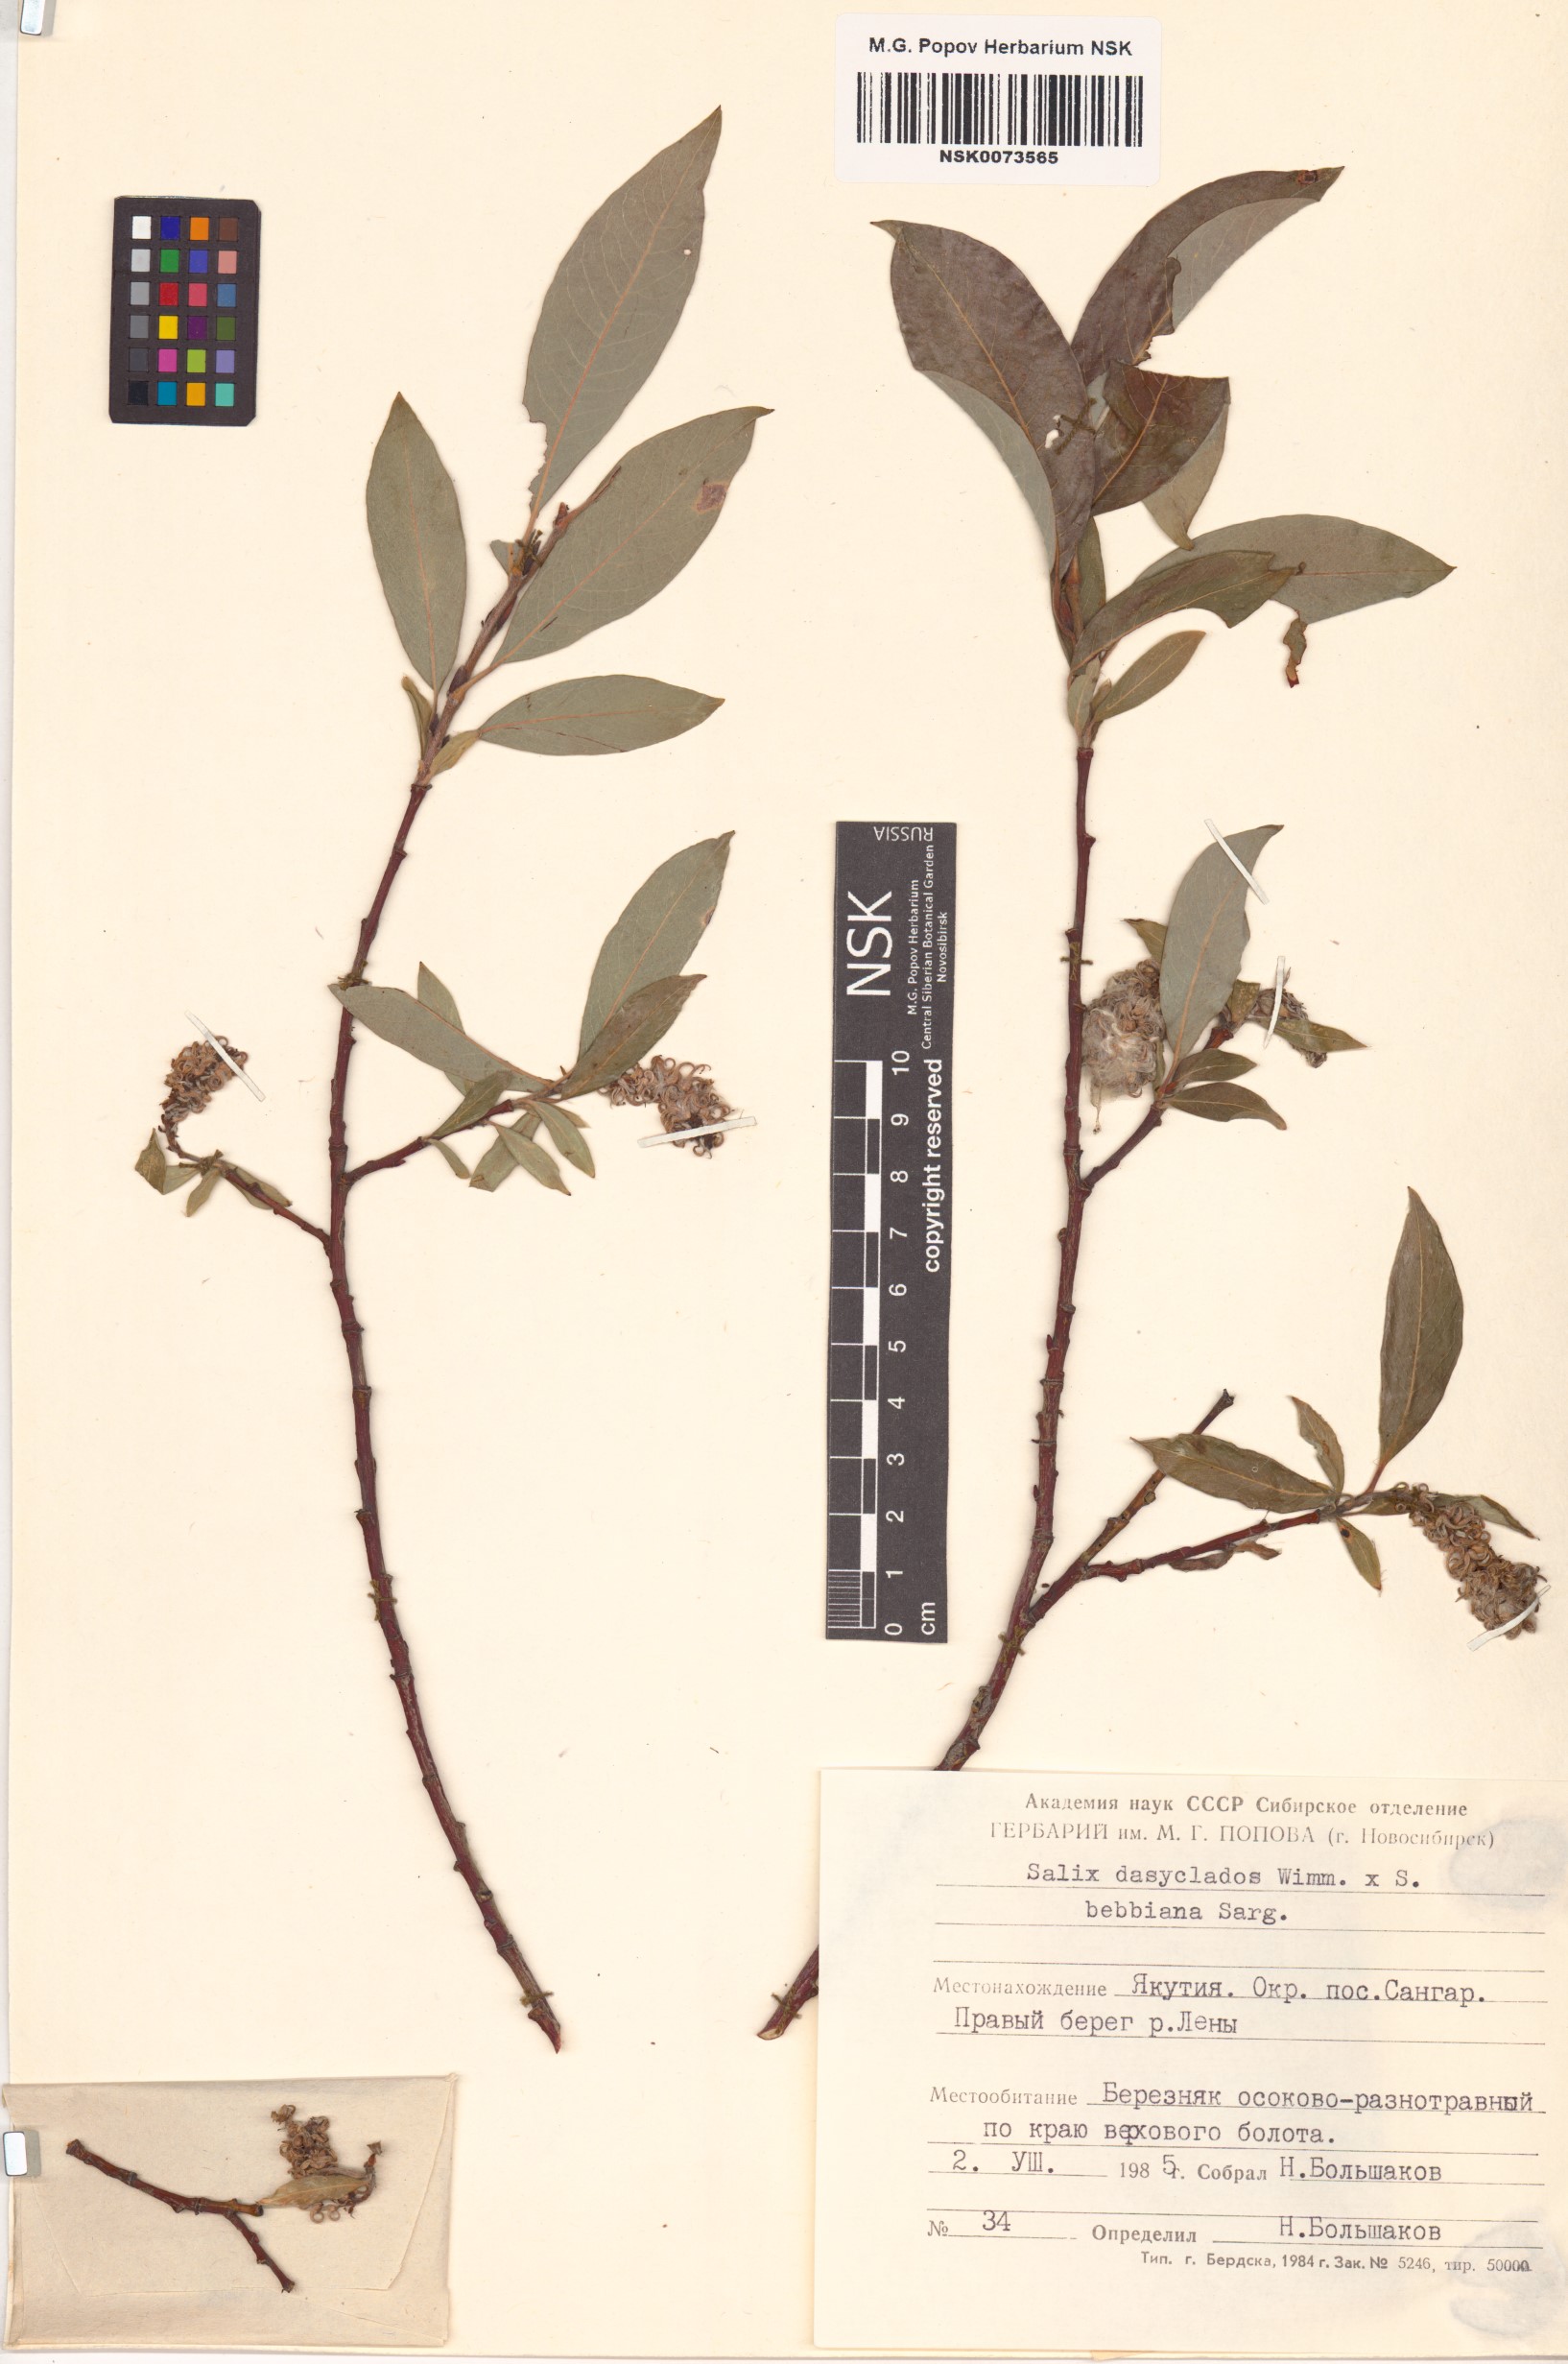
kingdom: Plantae
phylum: Tracheophyta
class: Magnoliopsida
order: Malpighiales
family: Salicaceae
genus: Salix
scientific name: Salix
